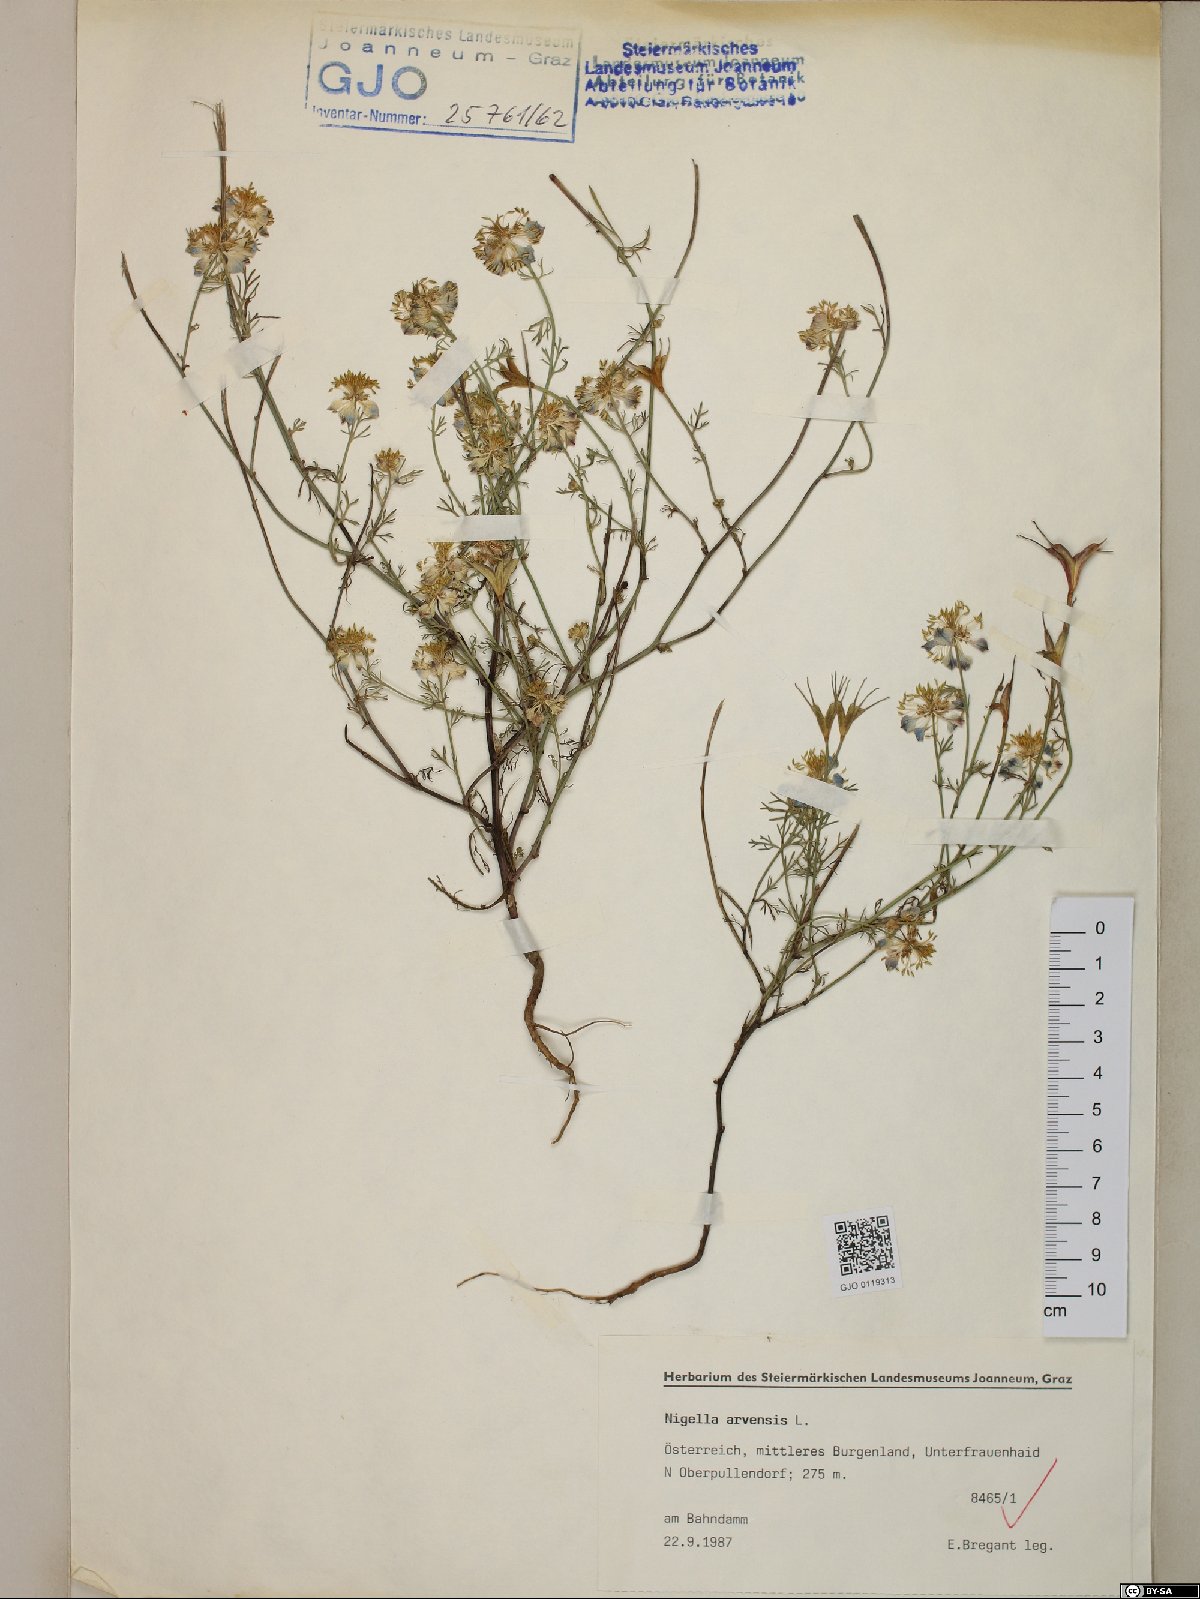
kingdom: Plantae
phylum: Tracheophyta
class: Magnoliopsida
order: Ranunculales
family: Ranunculaceae
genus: Nigella
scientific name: Nigella arvensis
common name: Wild fennel-flower
